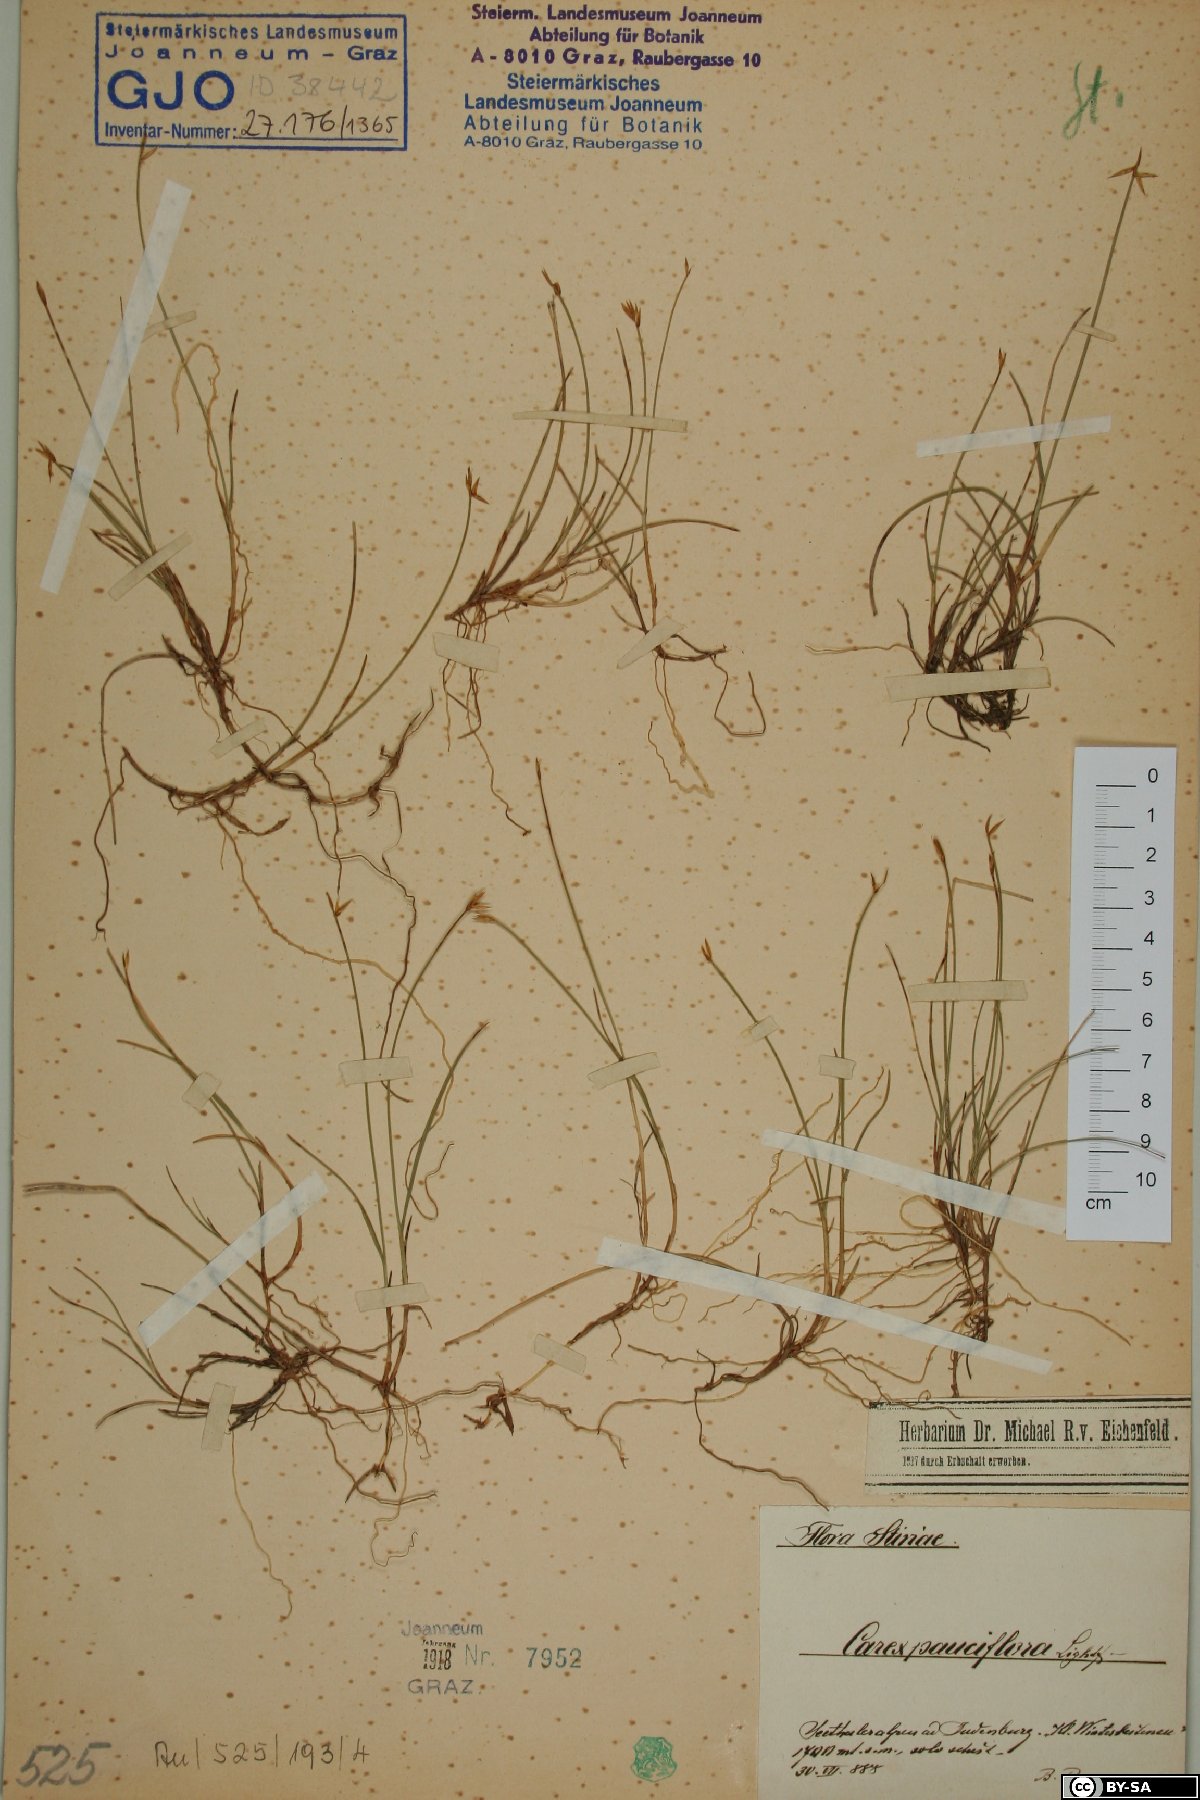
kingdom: Plantae
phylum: Tracheophyta
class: Liliopsida
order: Poales
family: Cyperaceae
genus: Carex
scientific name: Carex pauciflora
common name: Few-flowered sedge
